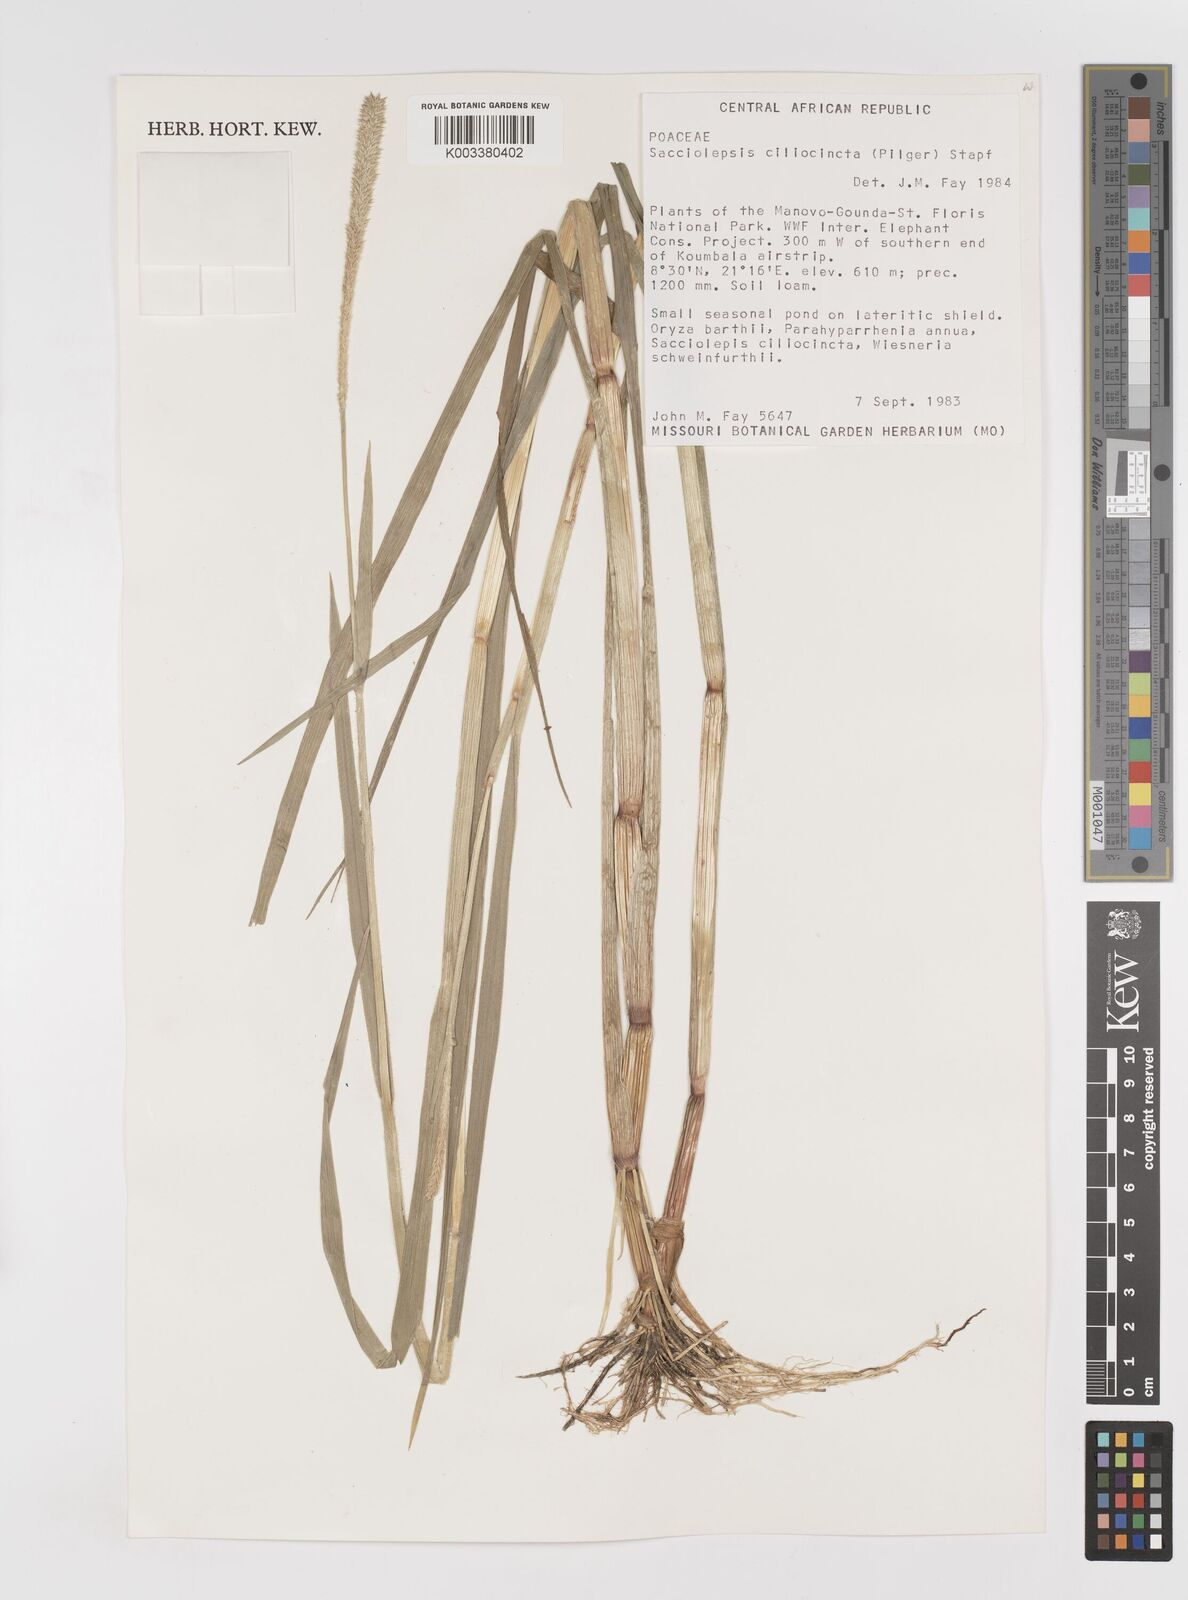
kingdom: Plantae
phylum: Tracheophyta
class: Liliopsida
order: Poales
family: Poaceae
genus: Sacciolepis
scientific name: Sacciolepis ciliocincta
